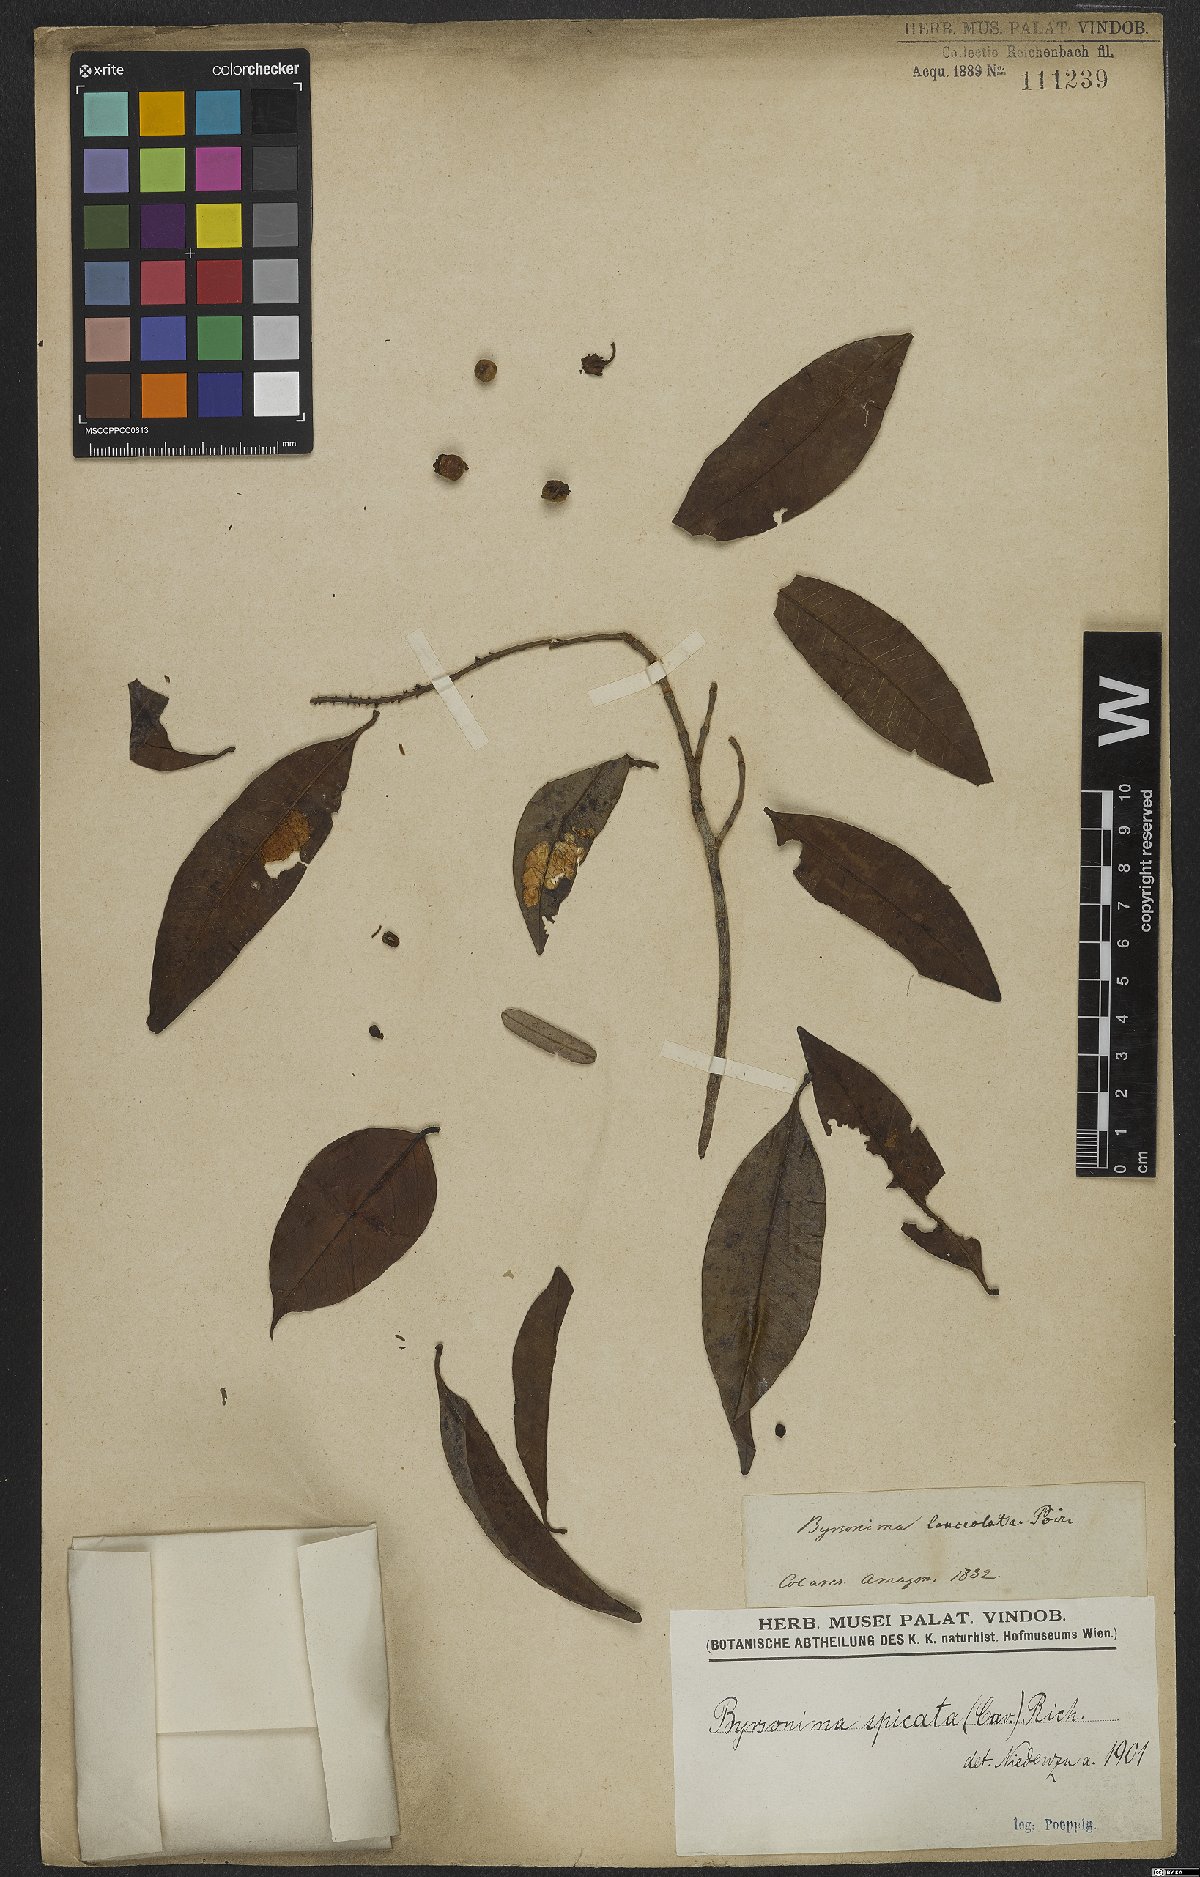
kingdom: Plantae
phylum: Tracheophyta
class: Magnoliopsida
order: Malpighiales
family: Malpighiaceae
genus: Byrsonima
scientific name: Byrsonima crassifolia
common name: Golden spoon
